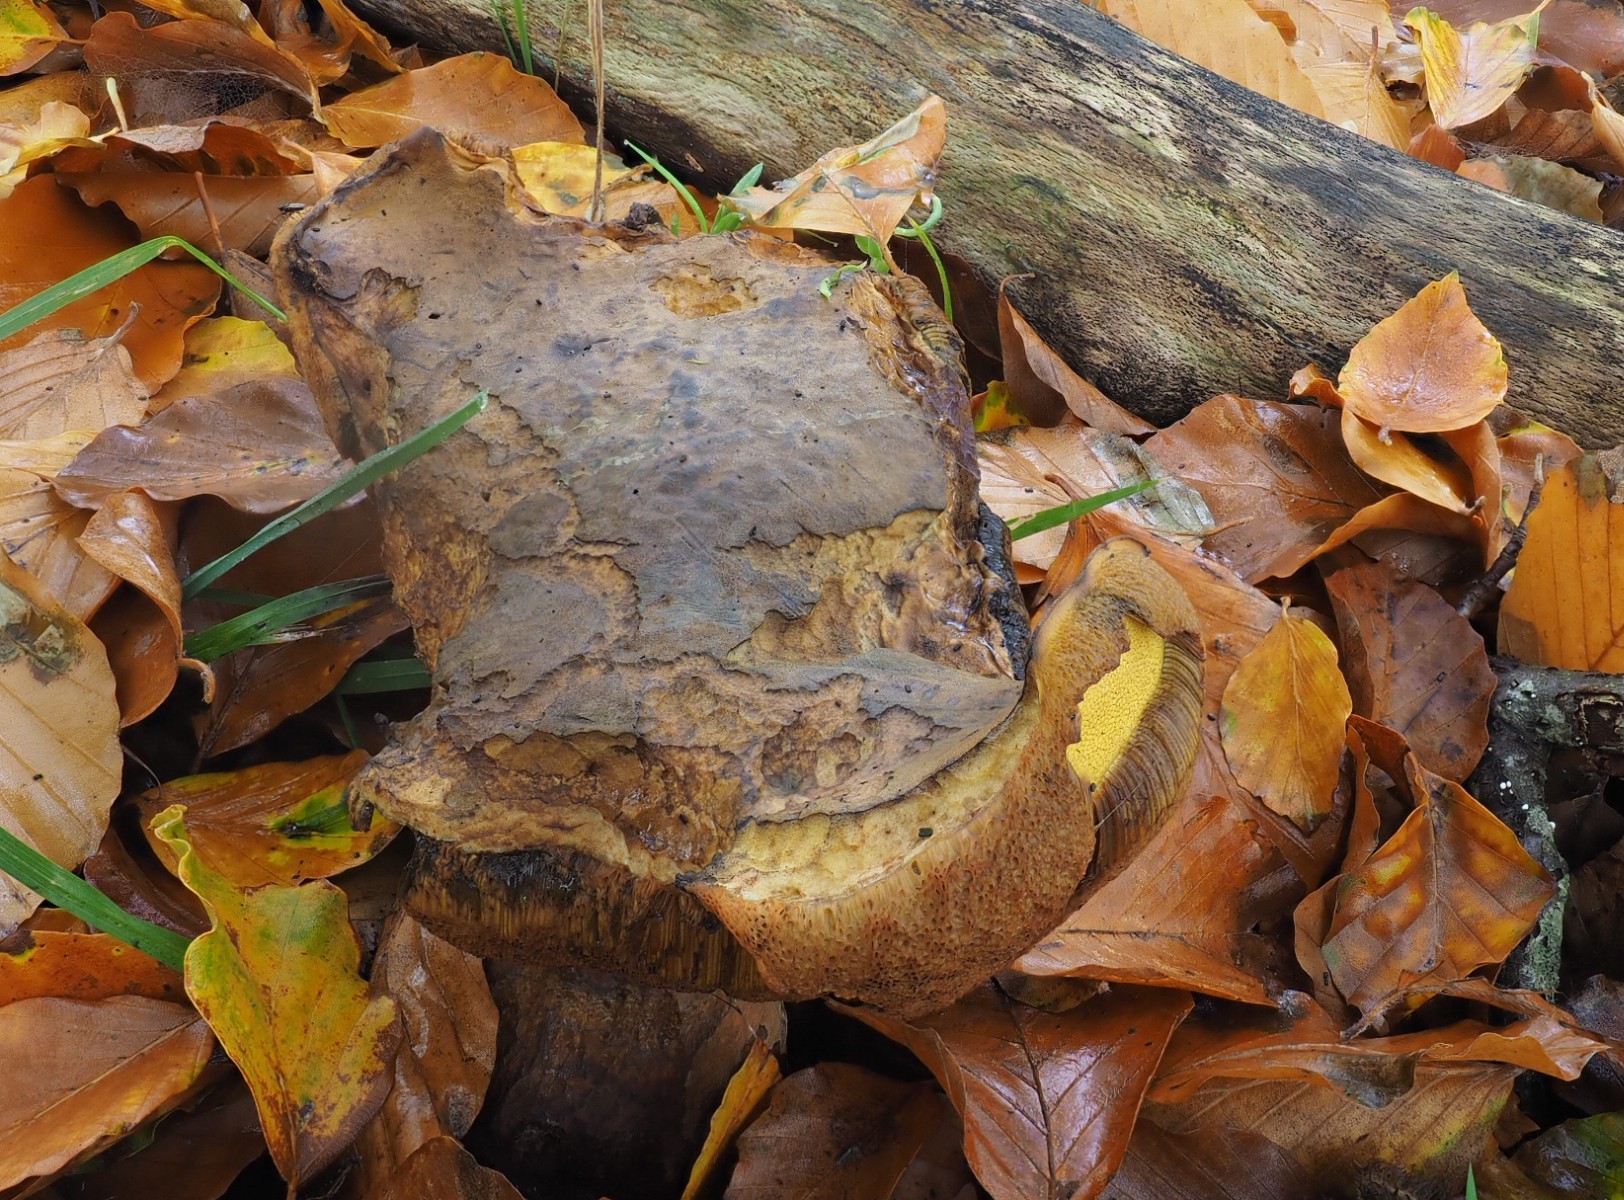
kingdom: Fungi
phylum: Basidiomycota
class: Agaricomycetes
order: Boletales
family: Boletaceae
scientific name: Boletaceae
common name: rørhatfamilien
